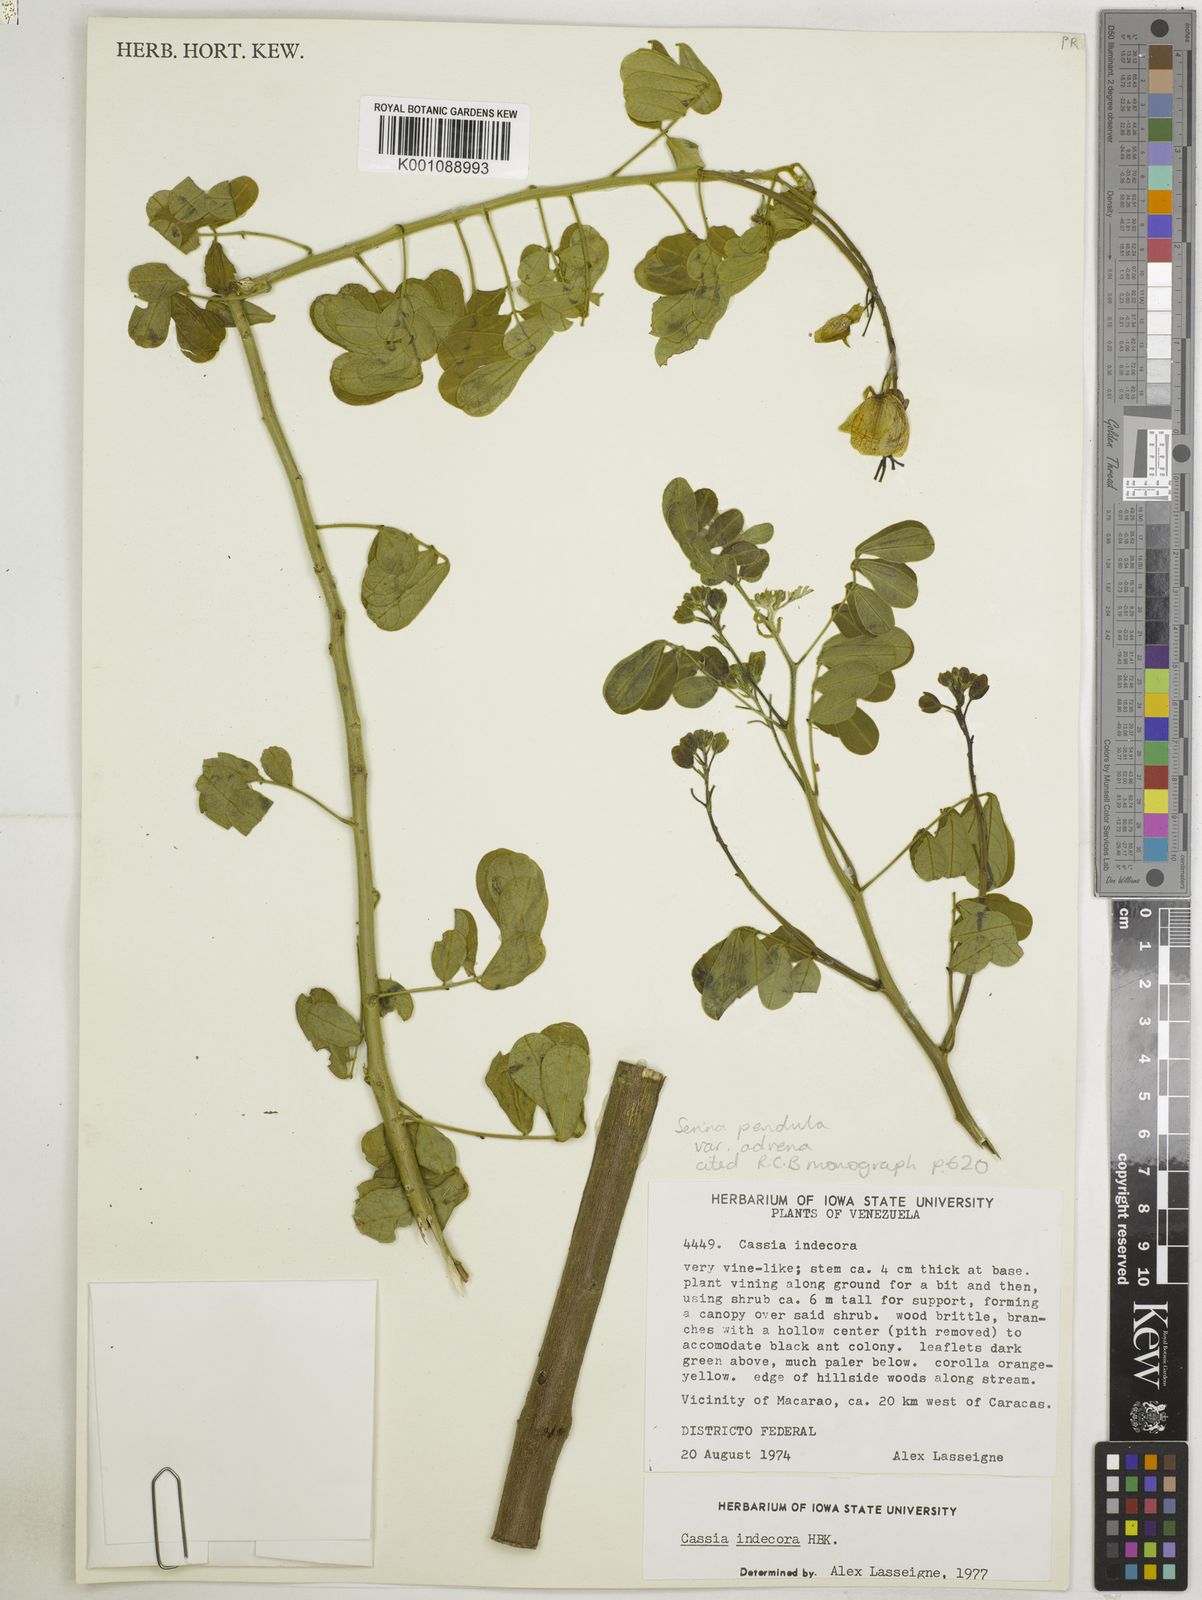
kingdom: Plantae
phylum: Tracheophyta
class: Magnoliopsida
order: Fabales
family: Fabaceae
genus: Senna
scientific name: Senna pendula
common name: Easter cassia
